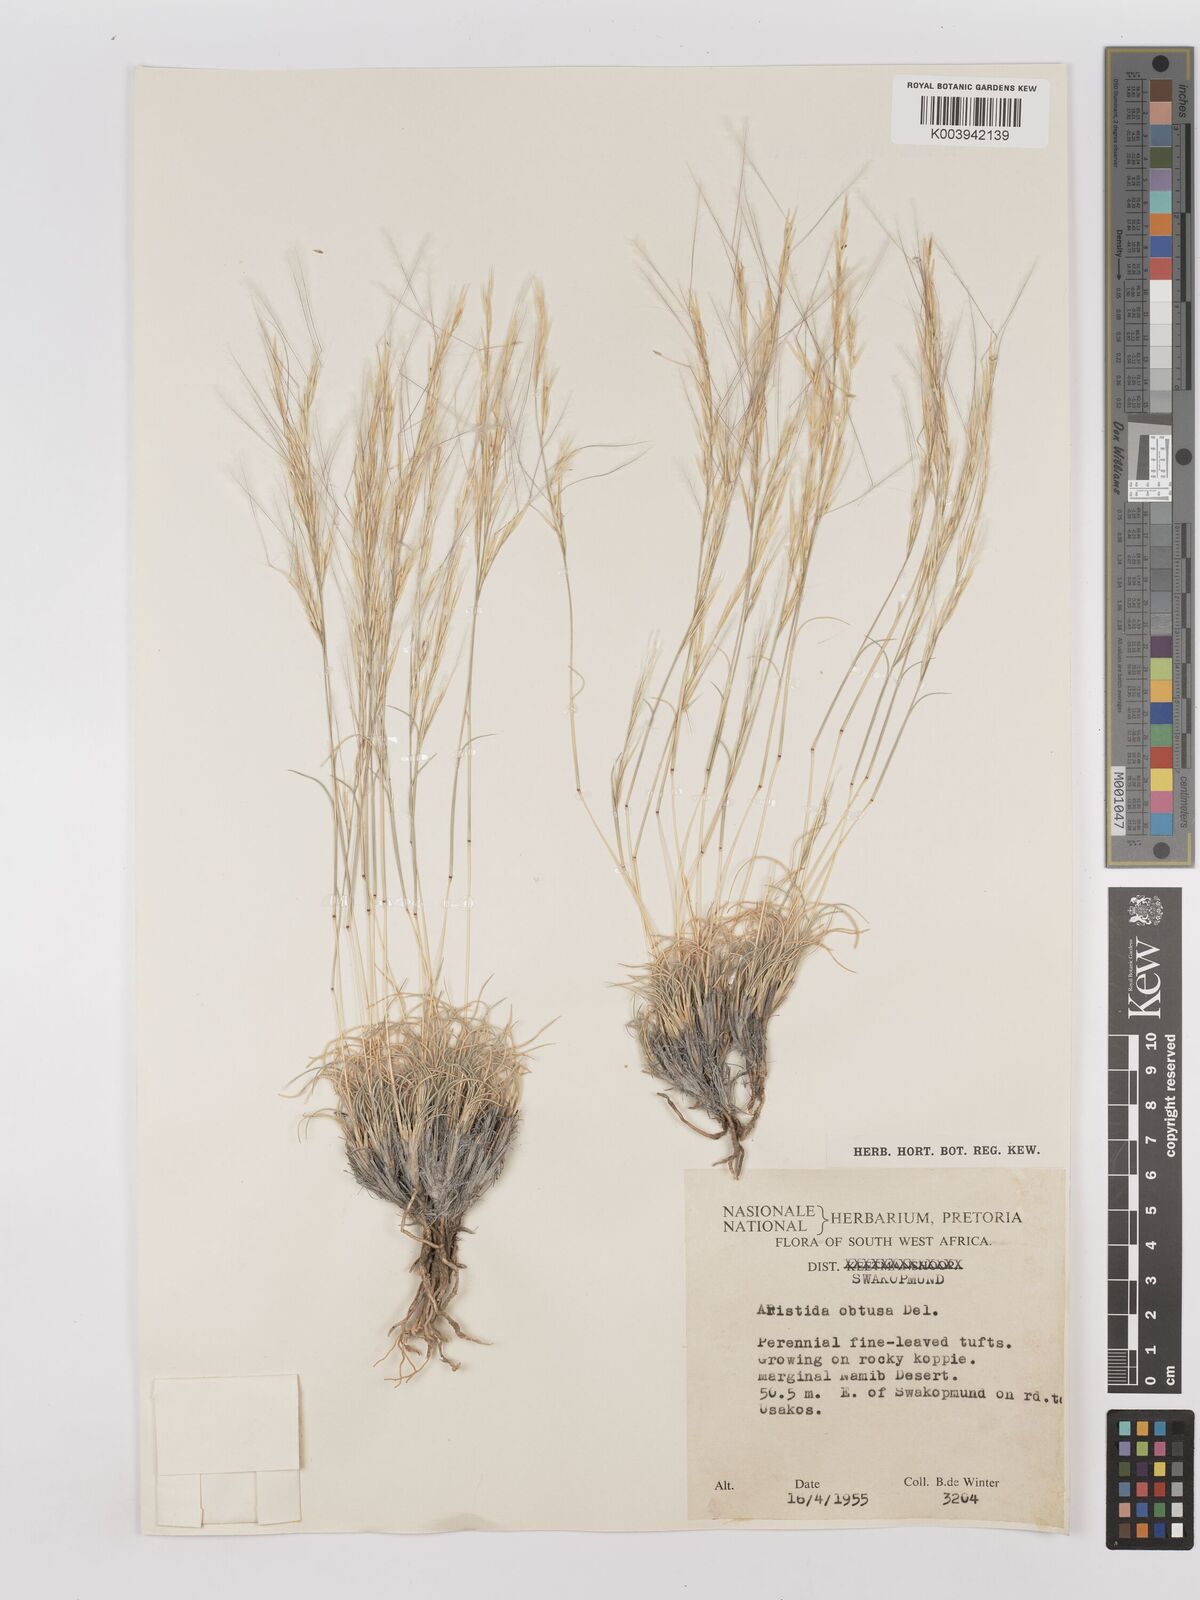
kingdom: Plantae
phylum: Tracheophyta
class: Liliopsida
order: Poales
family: Poaceae
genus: Stipagrostis
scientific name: Stipagrostis obtusa
